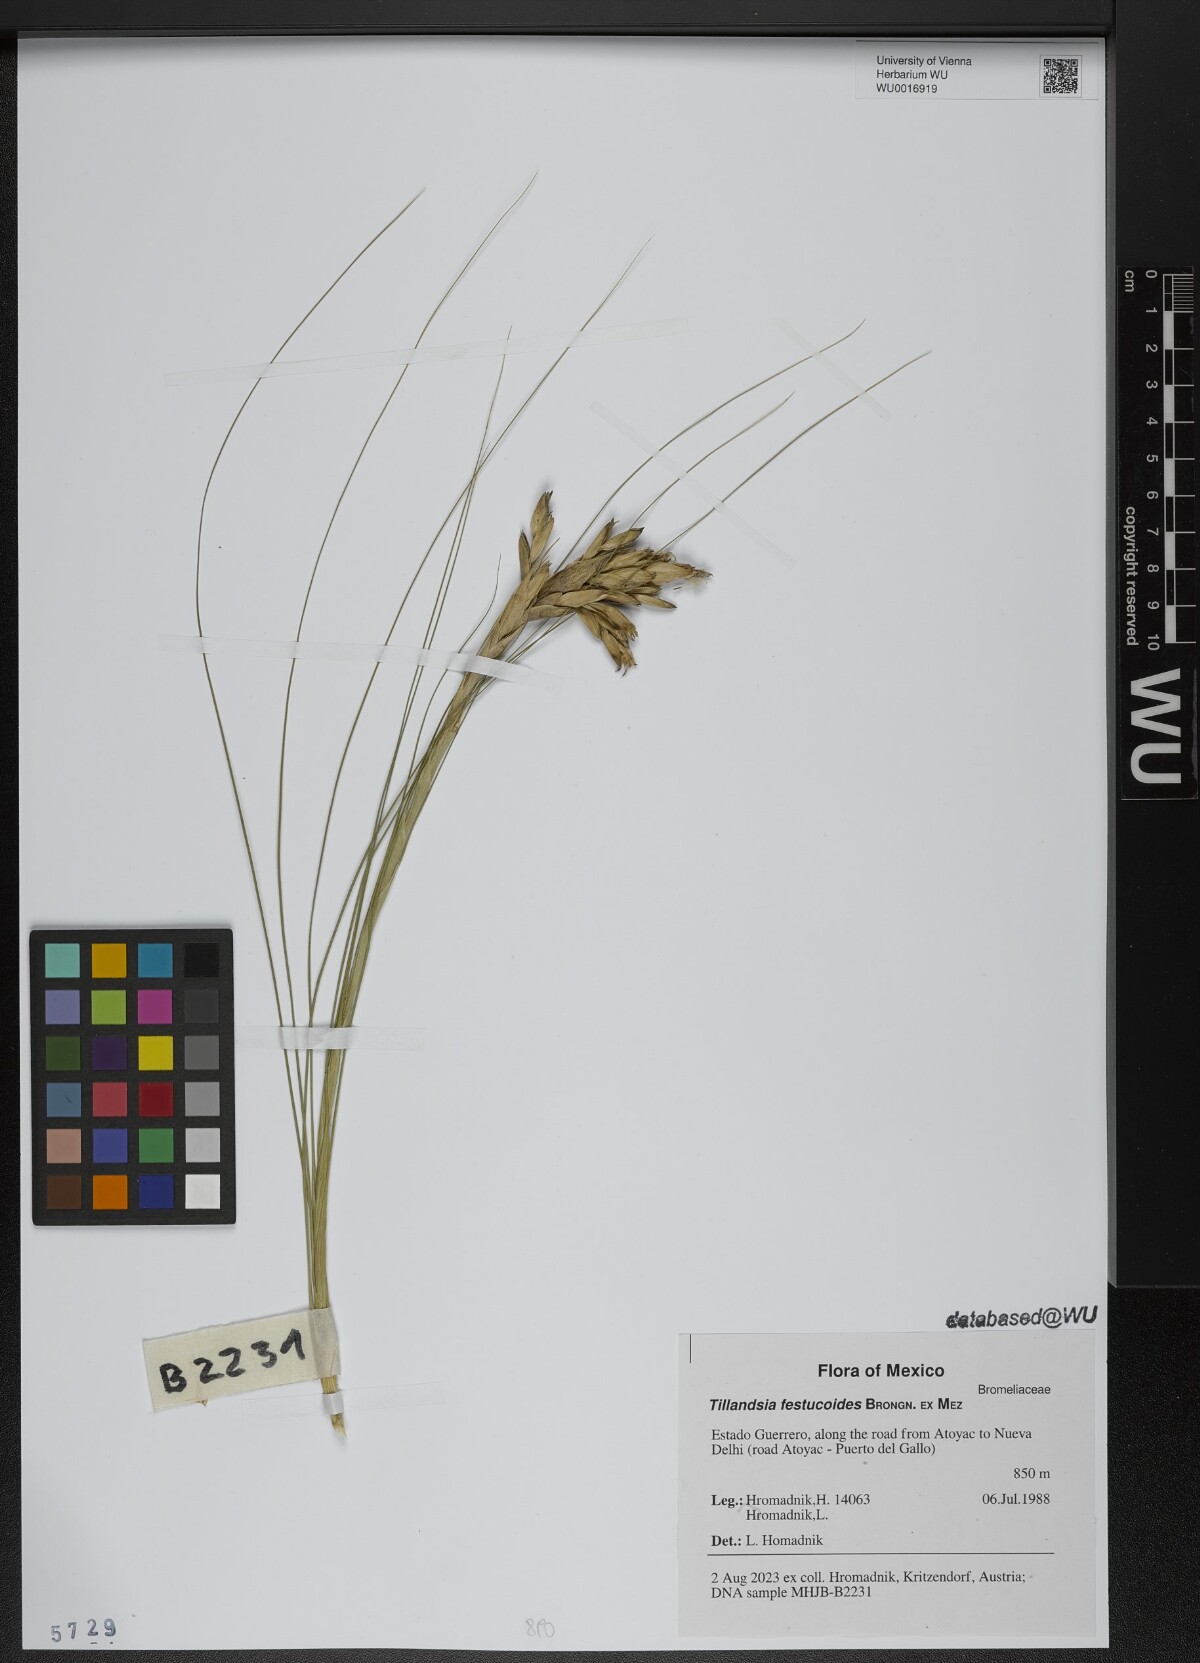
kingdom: Plantae
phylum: Tracheophyta
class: Liliopsida
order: Poales
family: Bromeliaceae
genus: Tillandsia
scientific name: Tillandsia festucoides
